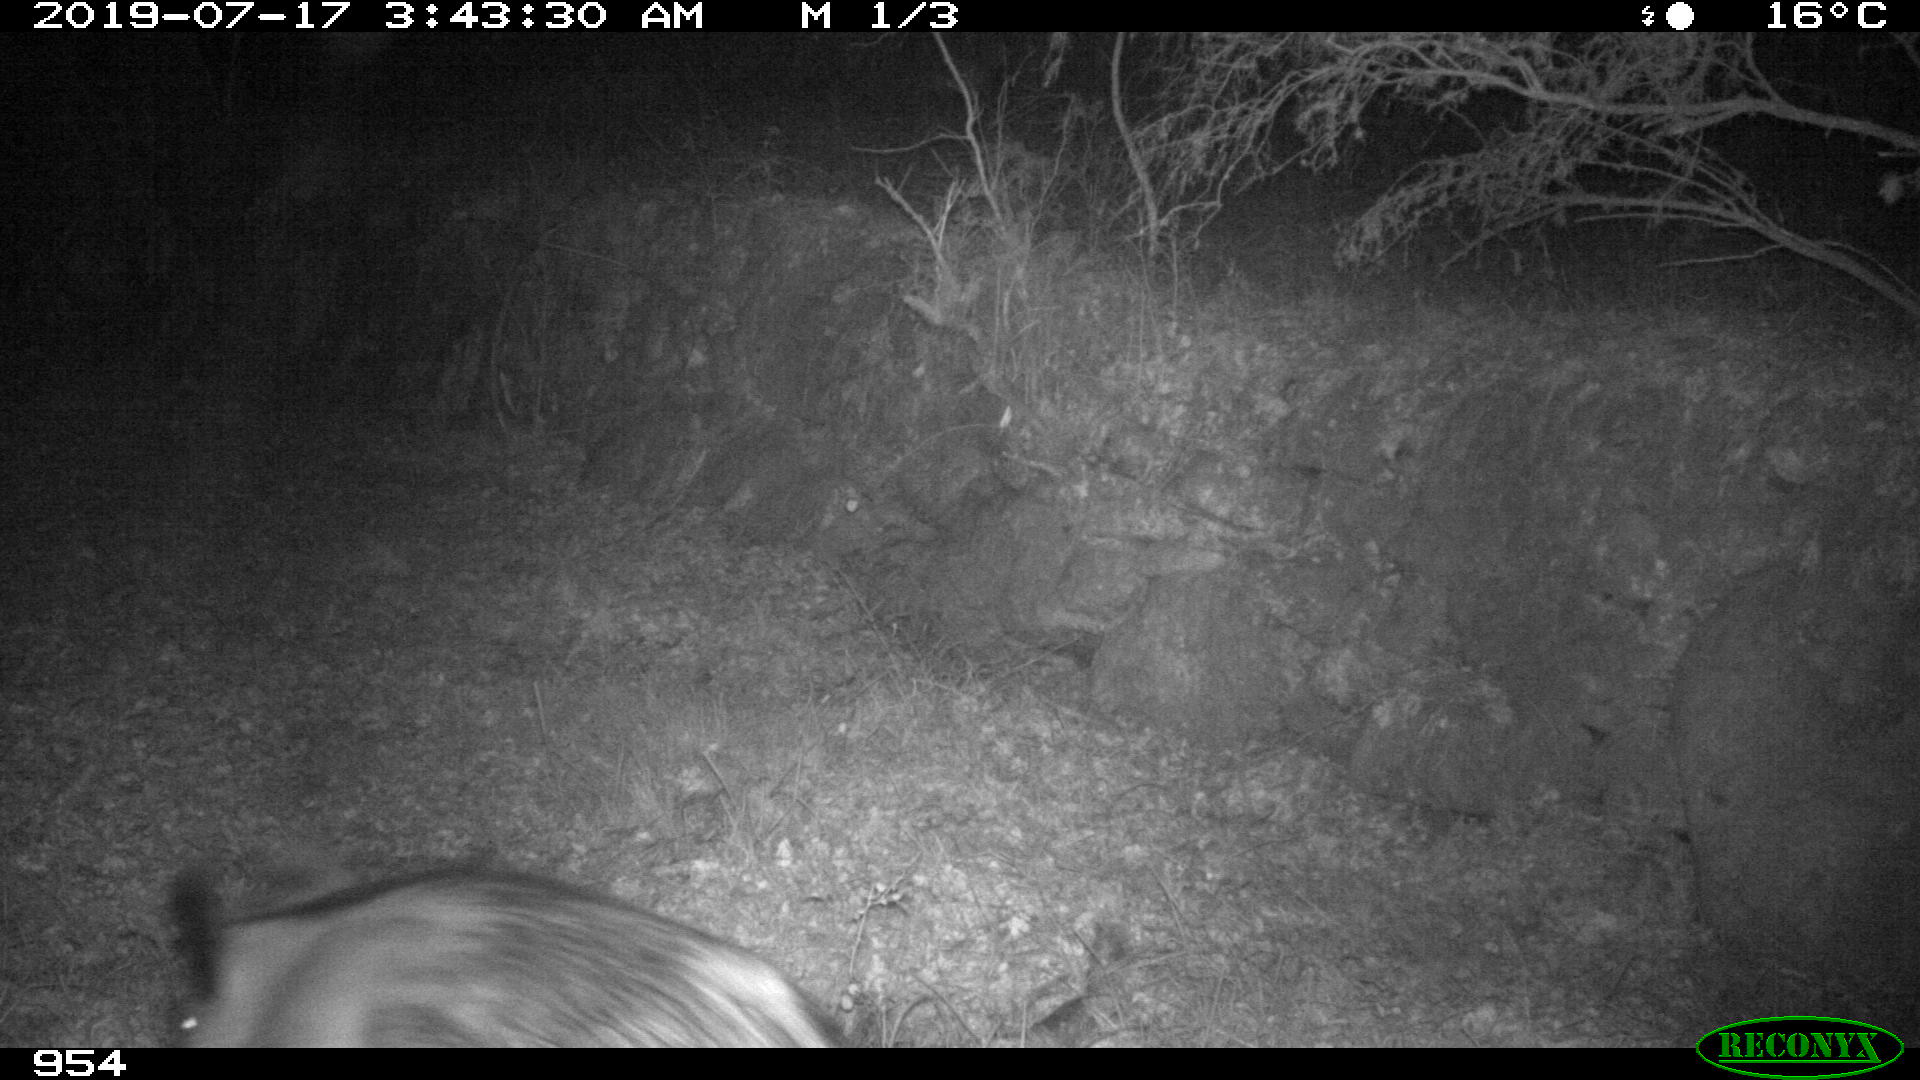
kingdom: Animalia
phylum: Chordata
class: Mammalia
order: Artiodactyla
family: Suidae
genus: Sus
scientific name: Sus scrofa
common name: Wild boar
